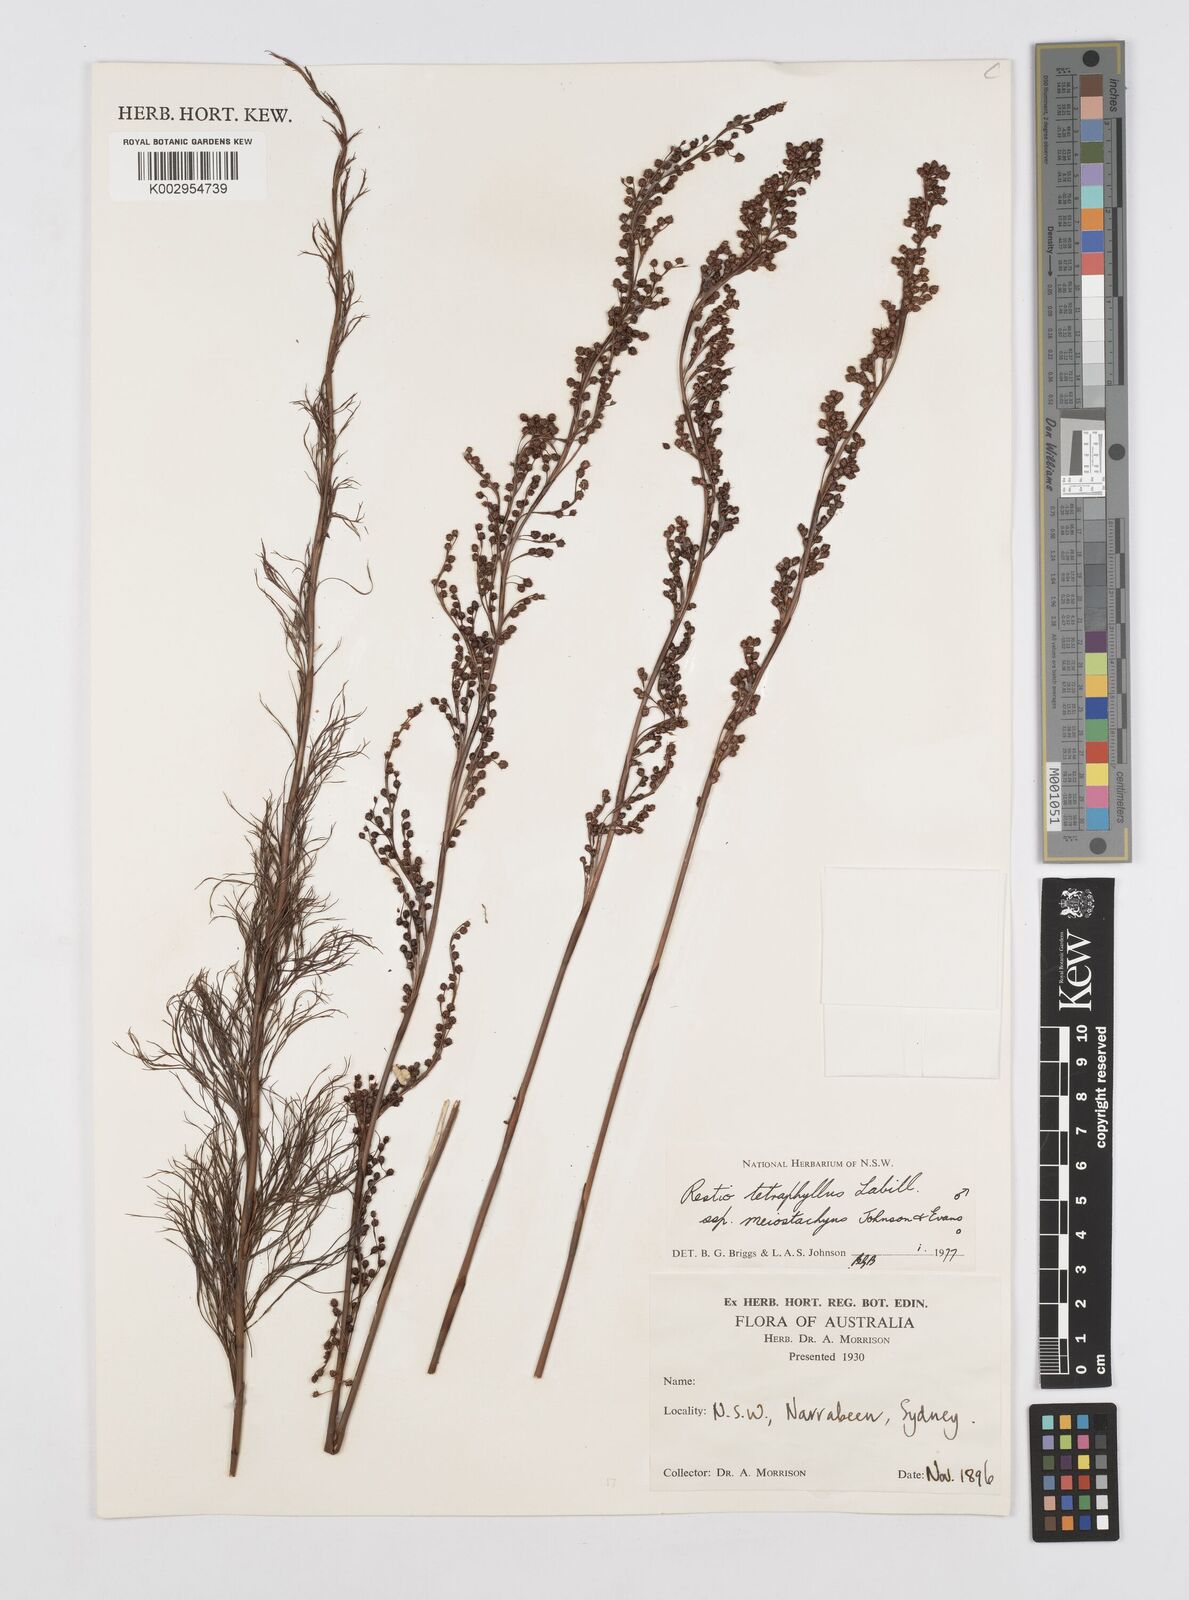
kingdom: Plantae
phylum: Tracheophyta
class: Liliopsida
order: Poales
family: Restionaceae
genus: Baloskion
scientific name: Baloskion tetraphyllum
